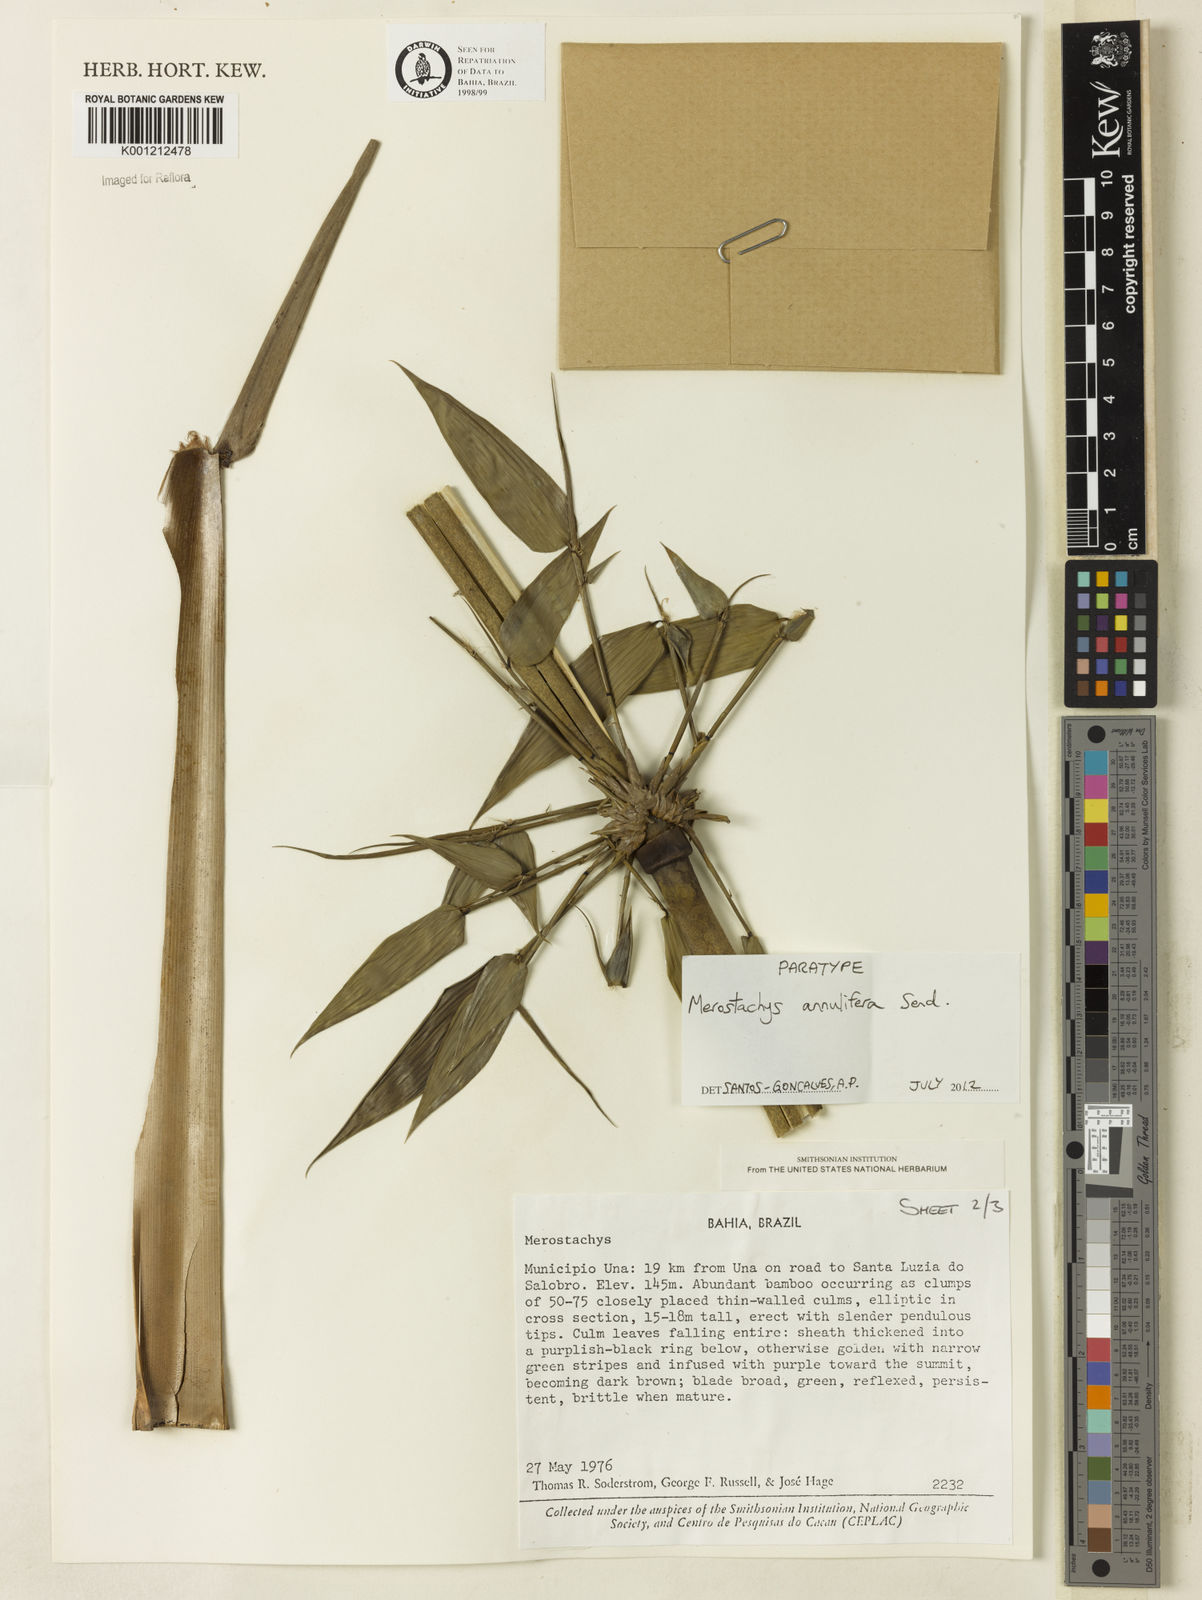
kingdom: Plantae
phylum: Tracheophyta
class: Liliopsida
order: Poales
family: Poaceae
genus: Merostachys
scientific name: Merostachys annulifera
